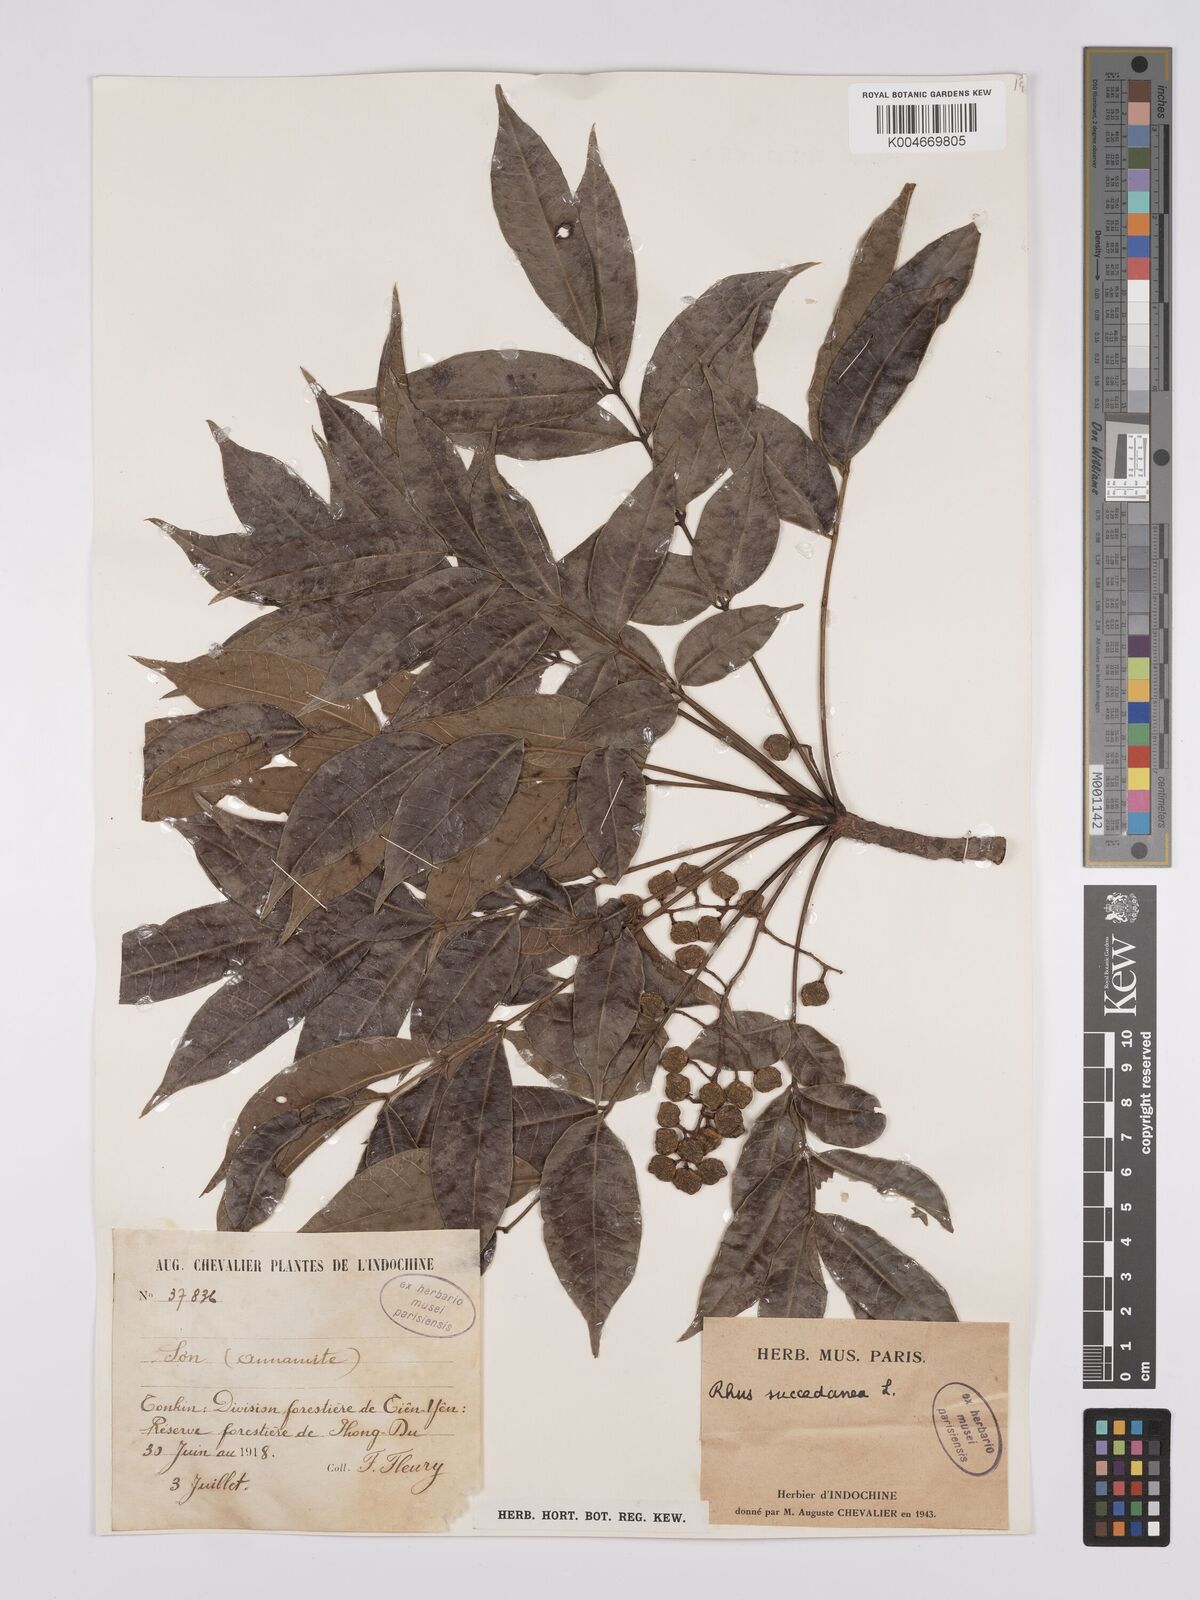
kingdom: Plantae
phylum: Tracheophyta
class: Magnoliopsida
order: Sapindales
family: Anacardiaceae
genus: Toxicodendron
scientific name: Toxicodendron succedaneum
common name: Wax tree
